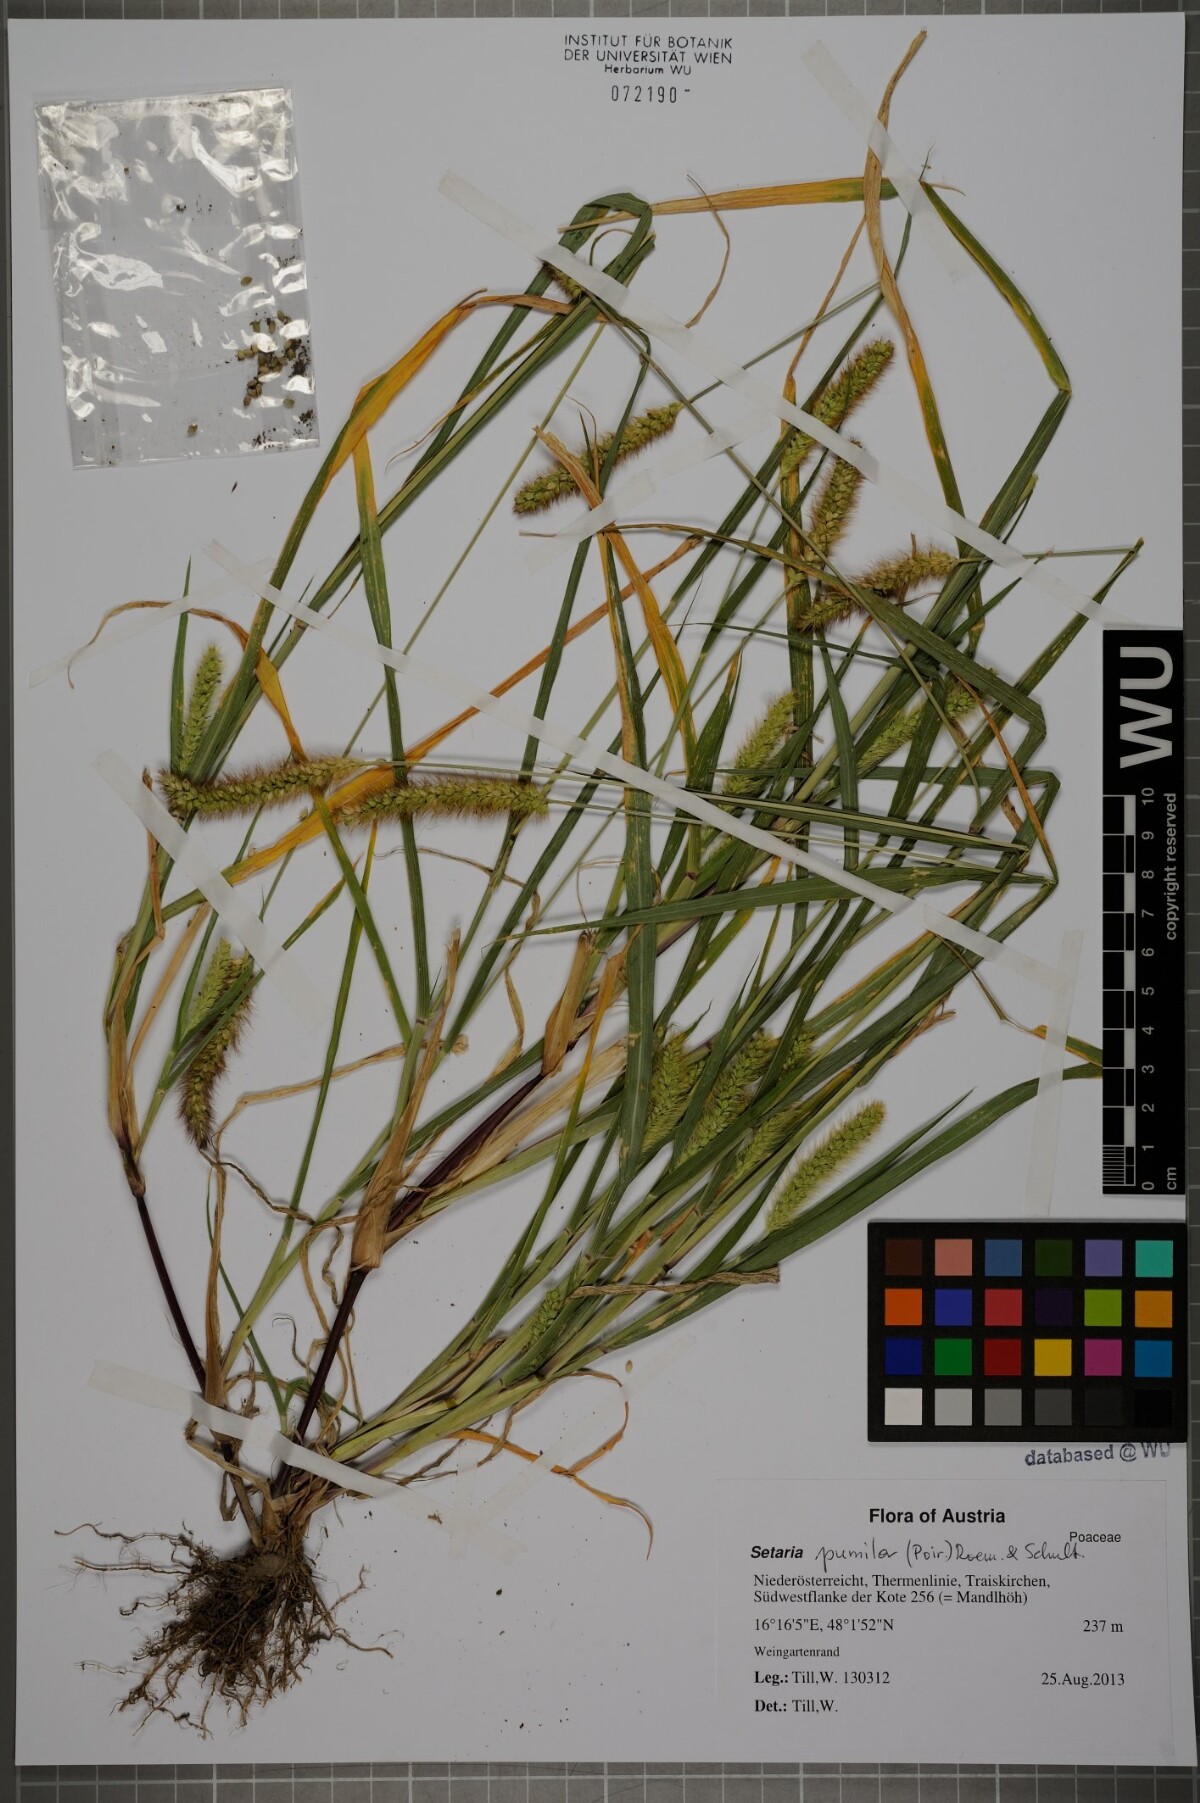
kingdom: Plantae
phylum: Tracheophyta
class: Liliopsida
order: Poales
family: Poaceae
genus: Setaria
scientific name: Setaria pumila
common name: Yellow bristle-grass
